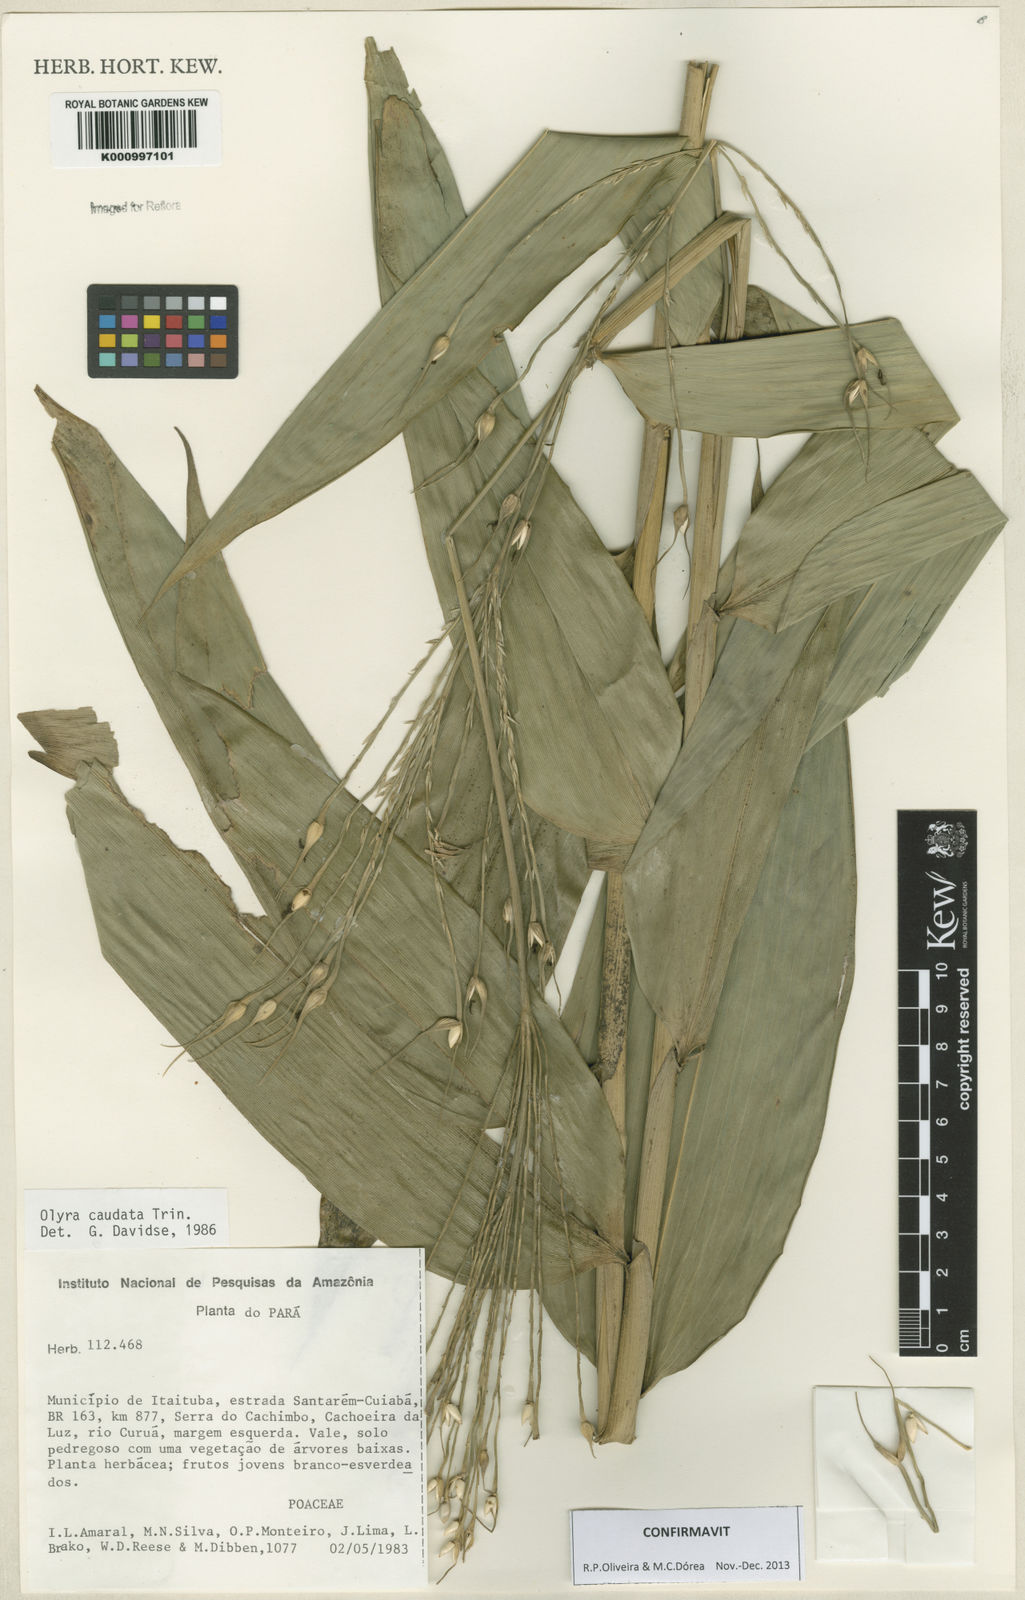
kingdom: Plantae
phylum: Tracheophyta
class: Liliopsida
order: Poales
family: Poaceae
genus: Olyra
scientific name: Olyra taquara
